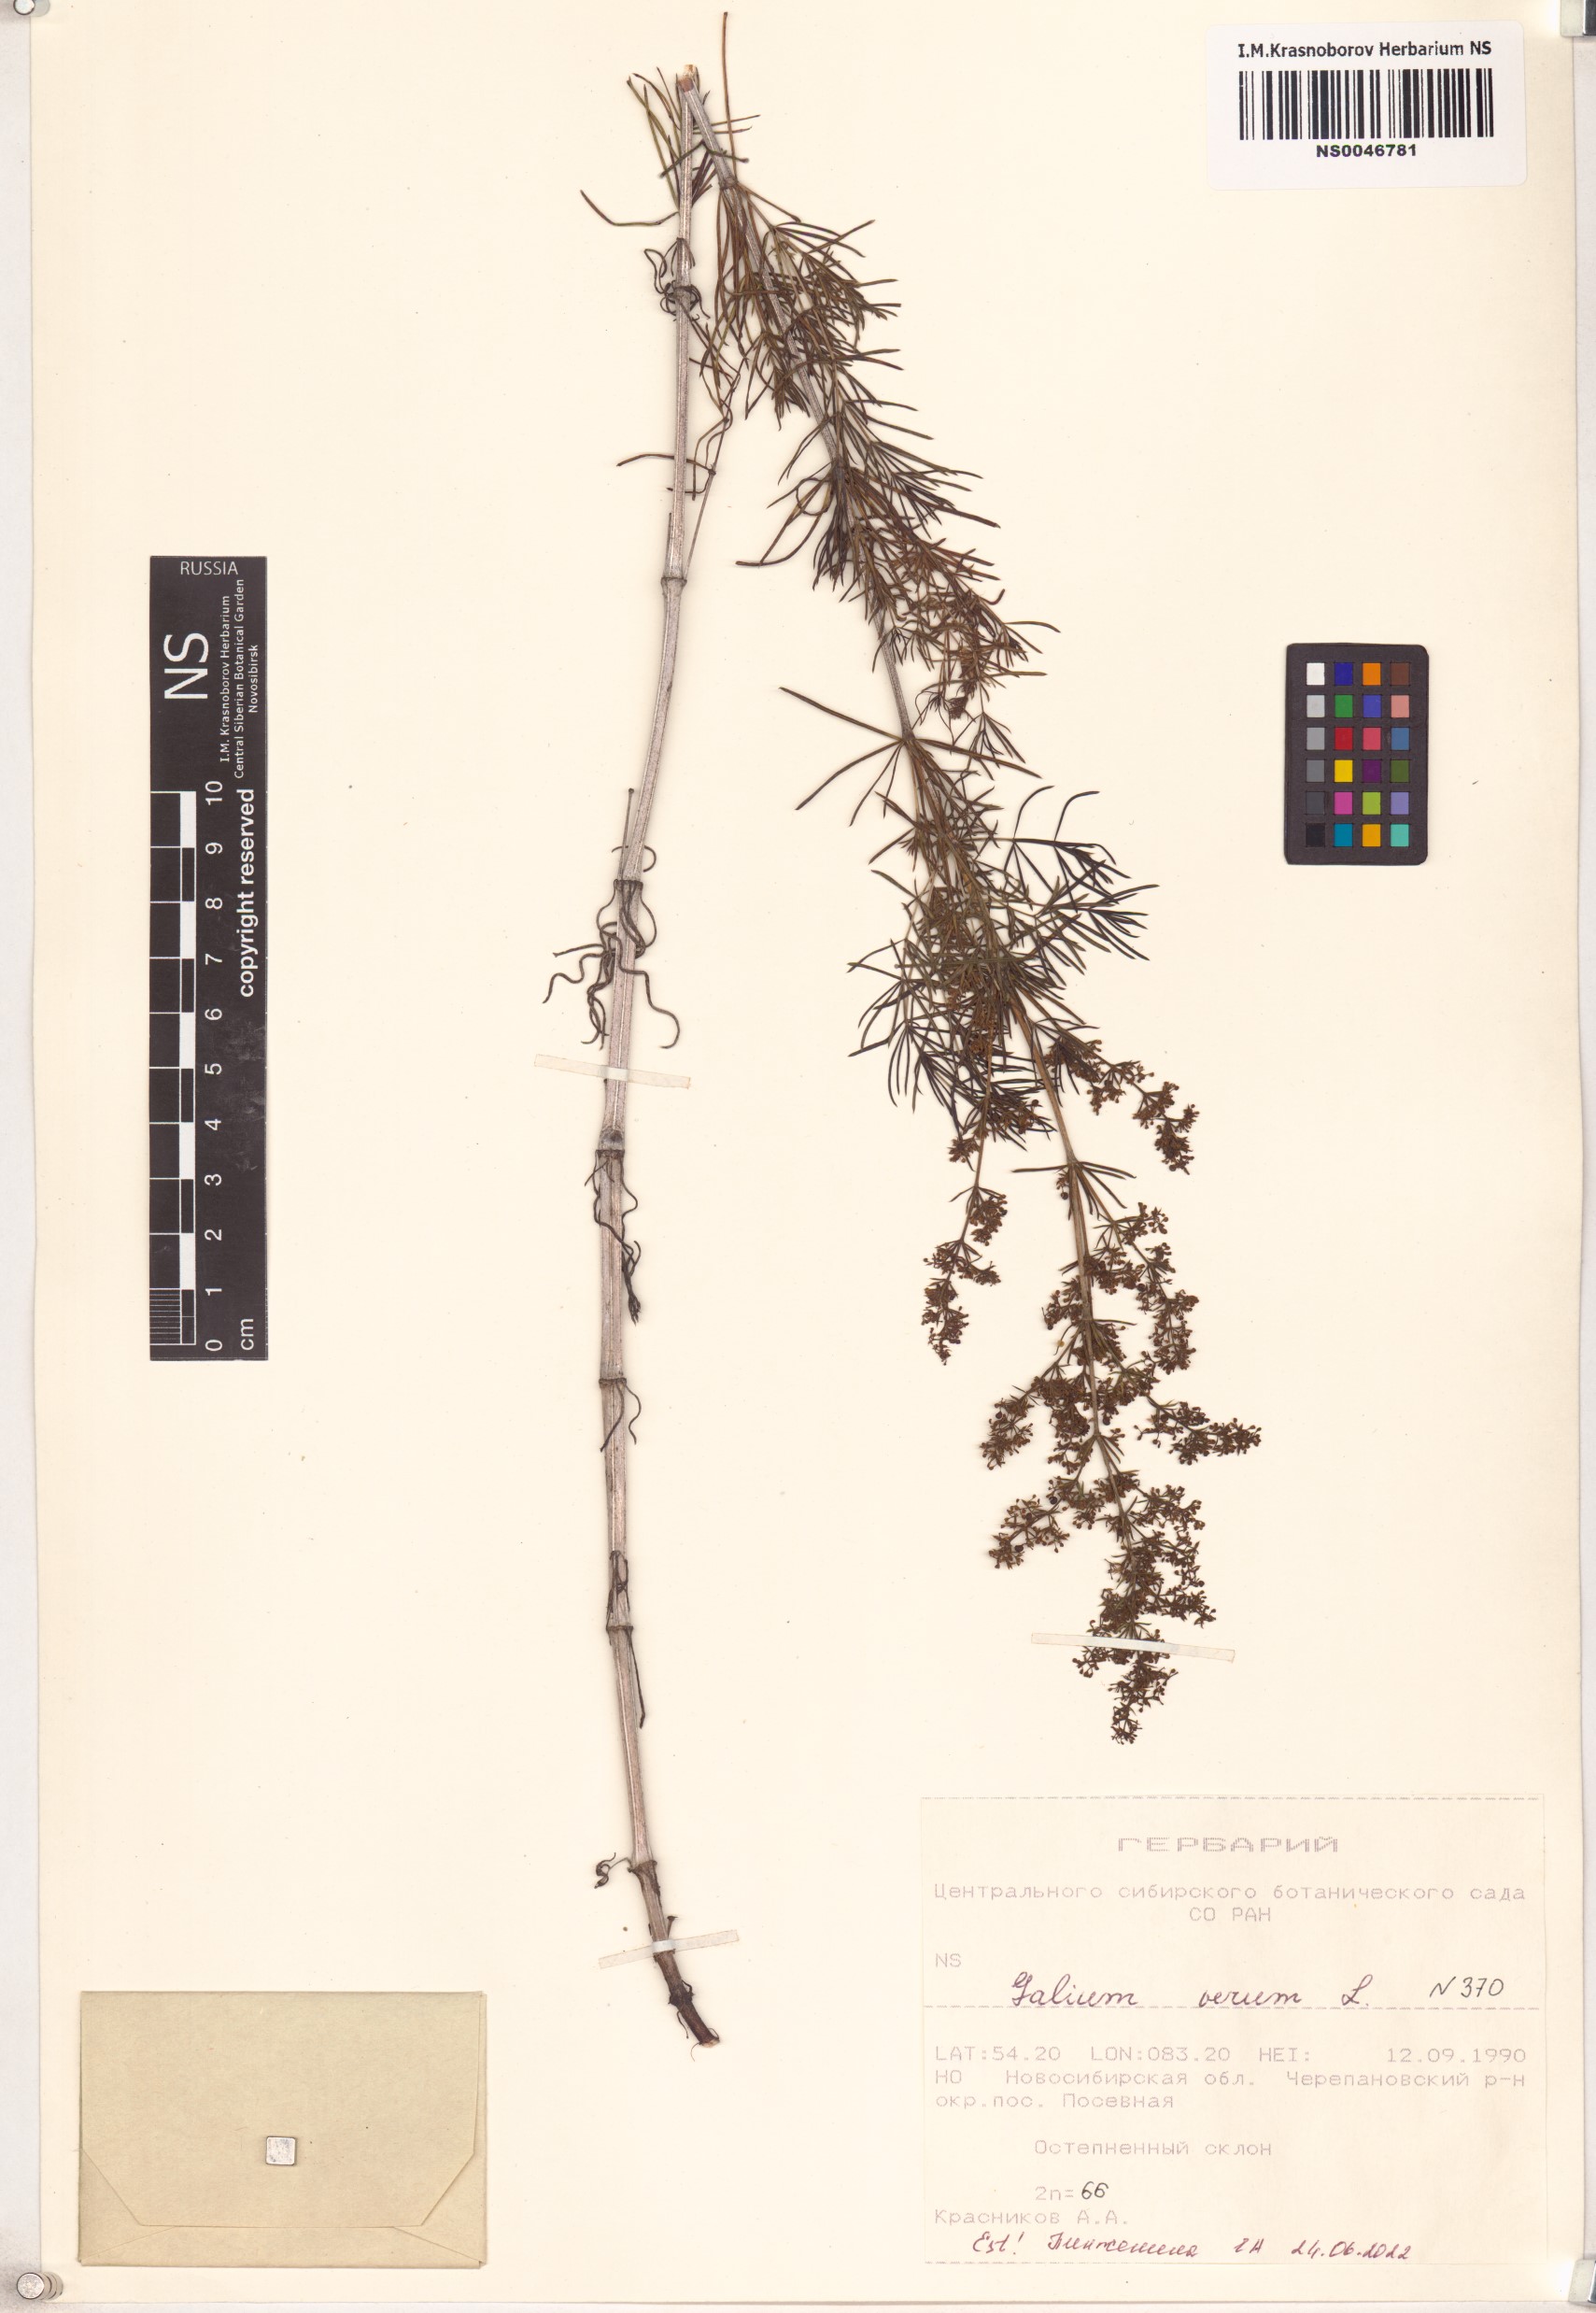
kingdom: Plantae
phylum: Tracheophyta
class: Magnoliopsida
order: Gentianales
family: Rubiaceae
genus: Galium
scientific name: Galium verum
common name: Lady's bedstraw
